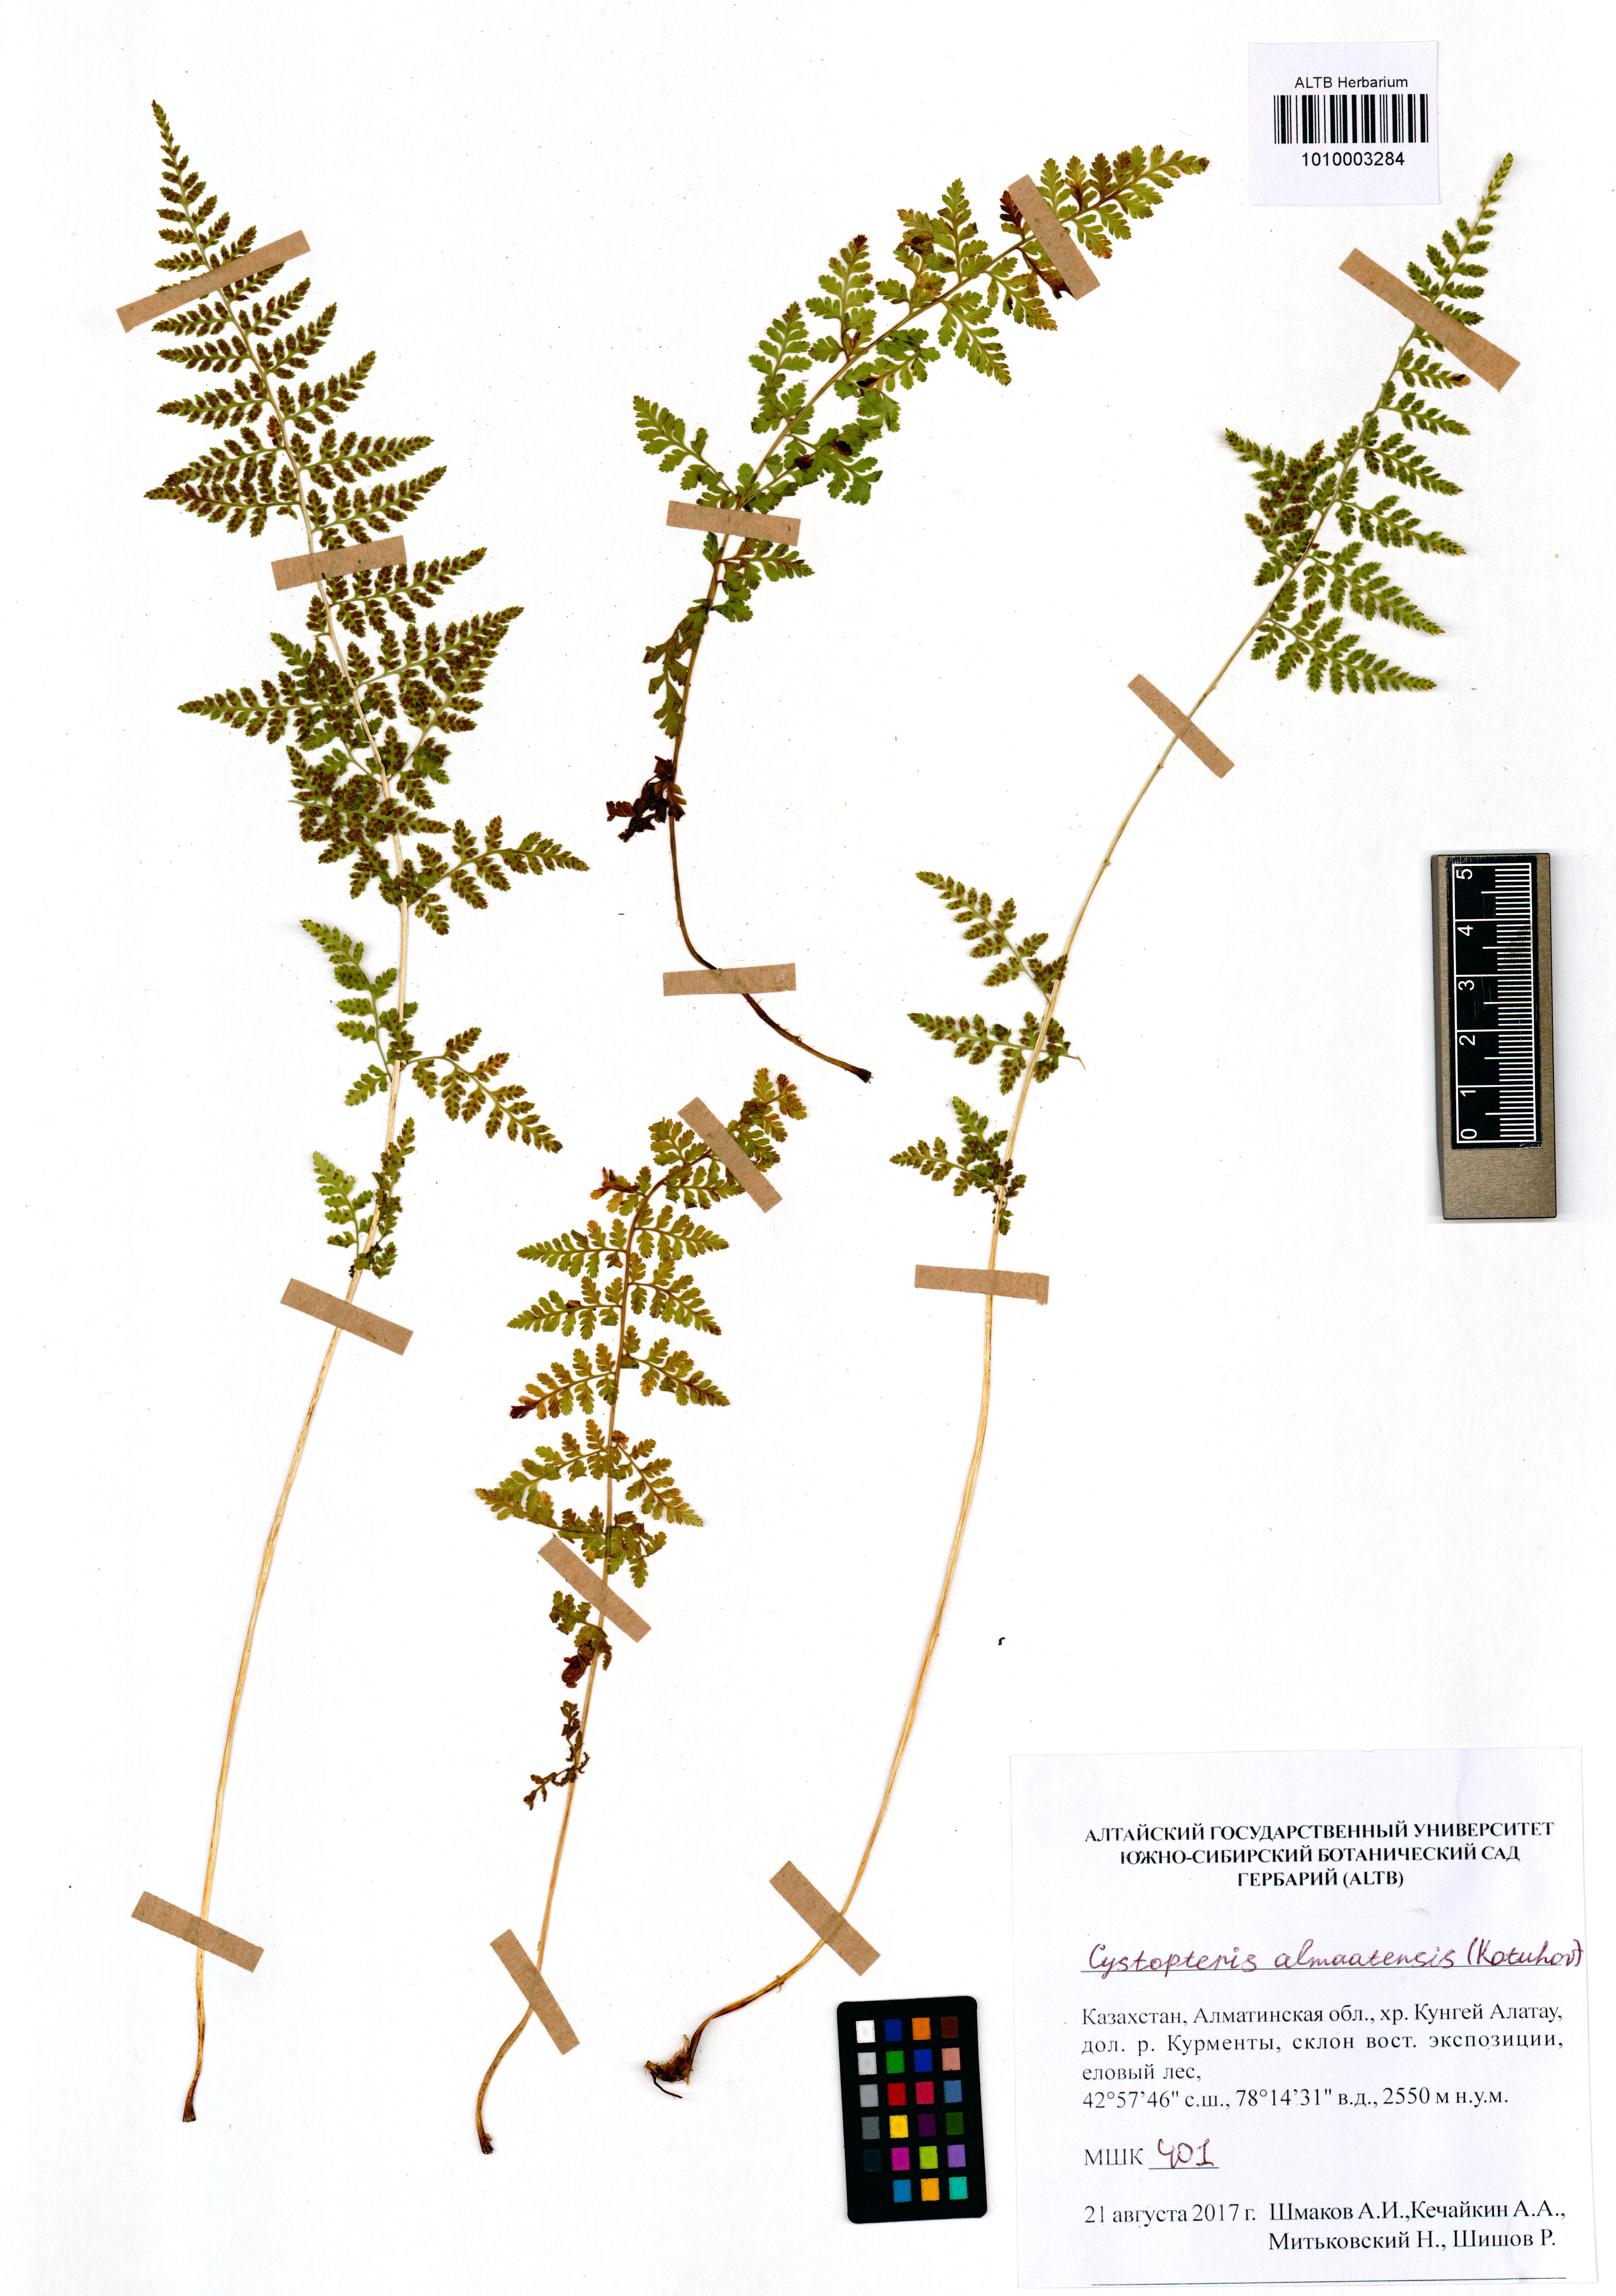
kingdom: Plantae
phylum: Tracheophyta
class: Polypodiopsida
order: Polypodiales
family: Cystopteridaceae
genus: Cystopteris
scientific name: Cystopteris dickieana
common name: Dickie's bladder-fern
